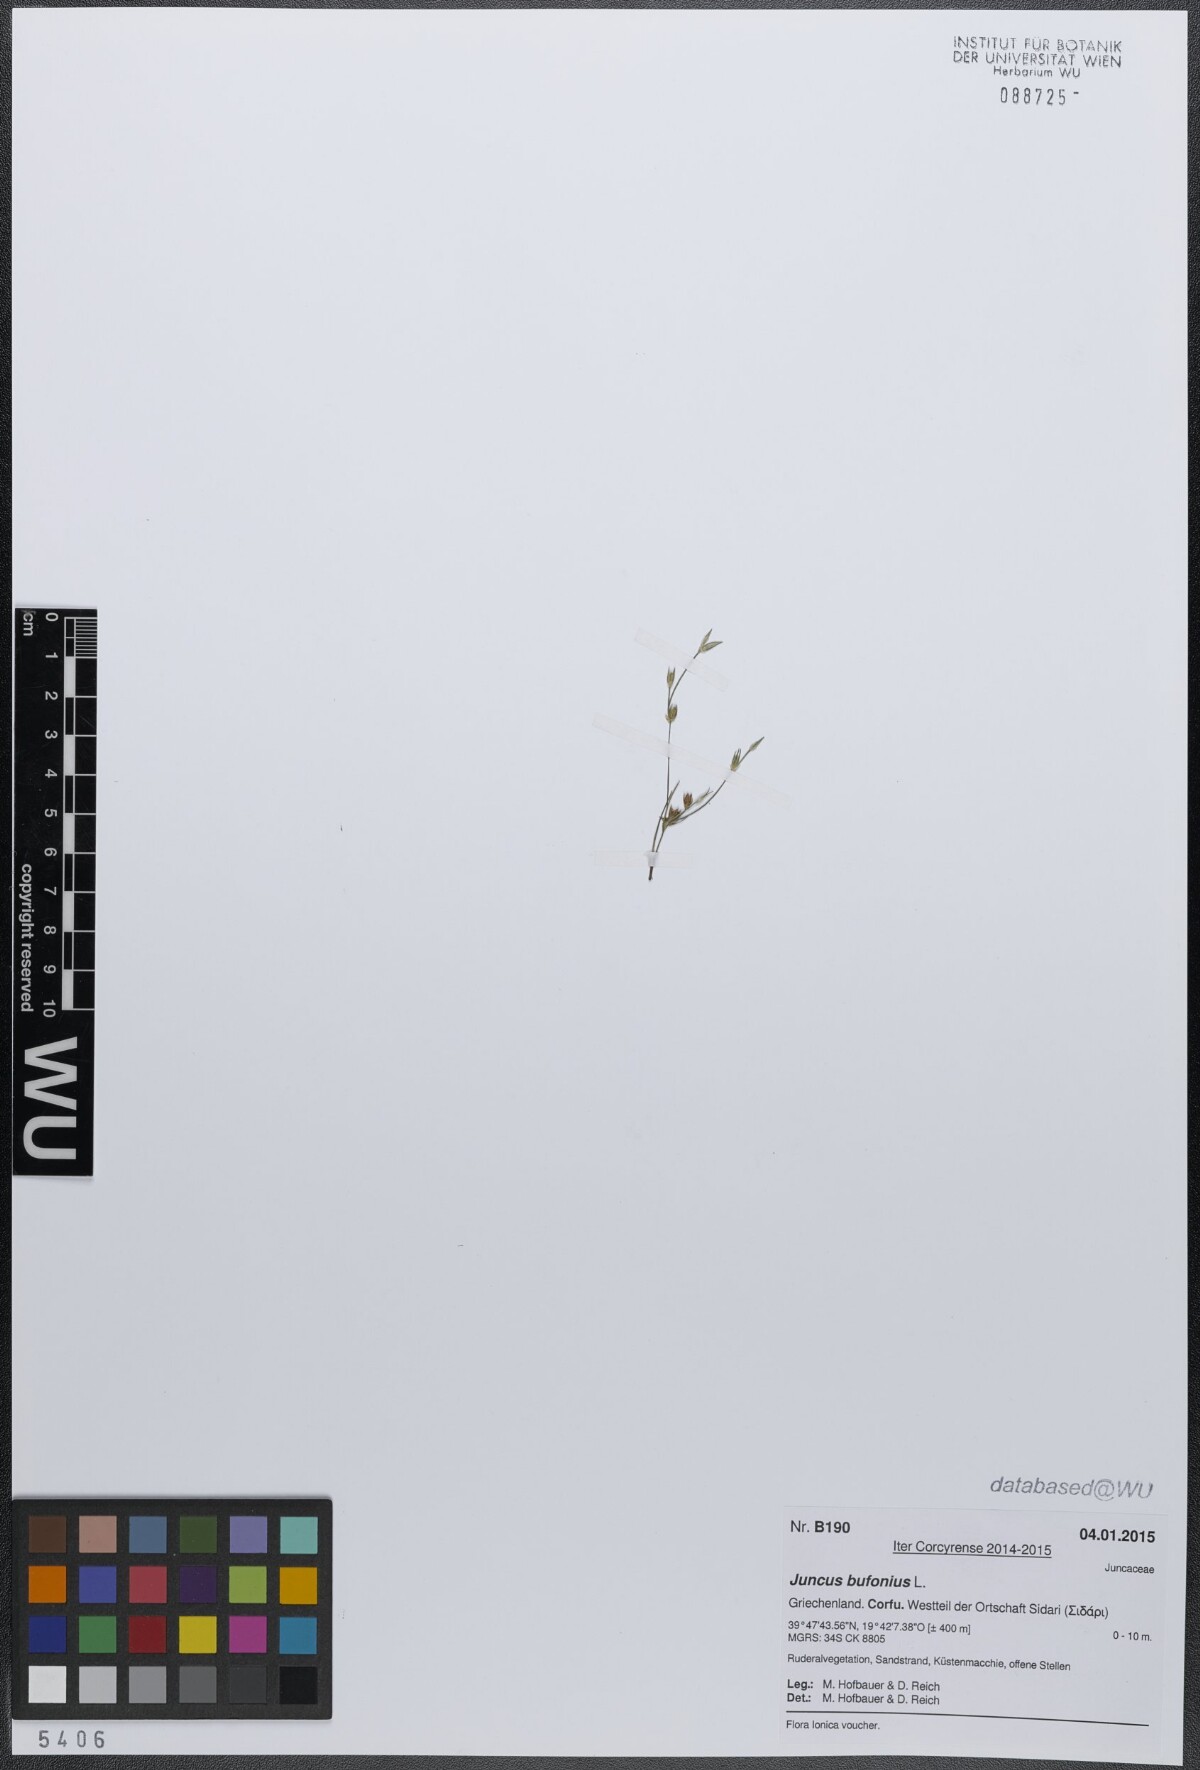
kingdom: Plantae
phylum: Tracheophyta
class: Liliopsida
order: Poales
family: Juncaceae
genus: Juncus
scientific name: Juncus bufonius
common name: Toad rush
